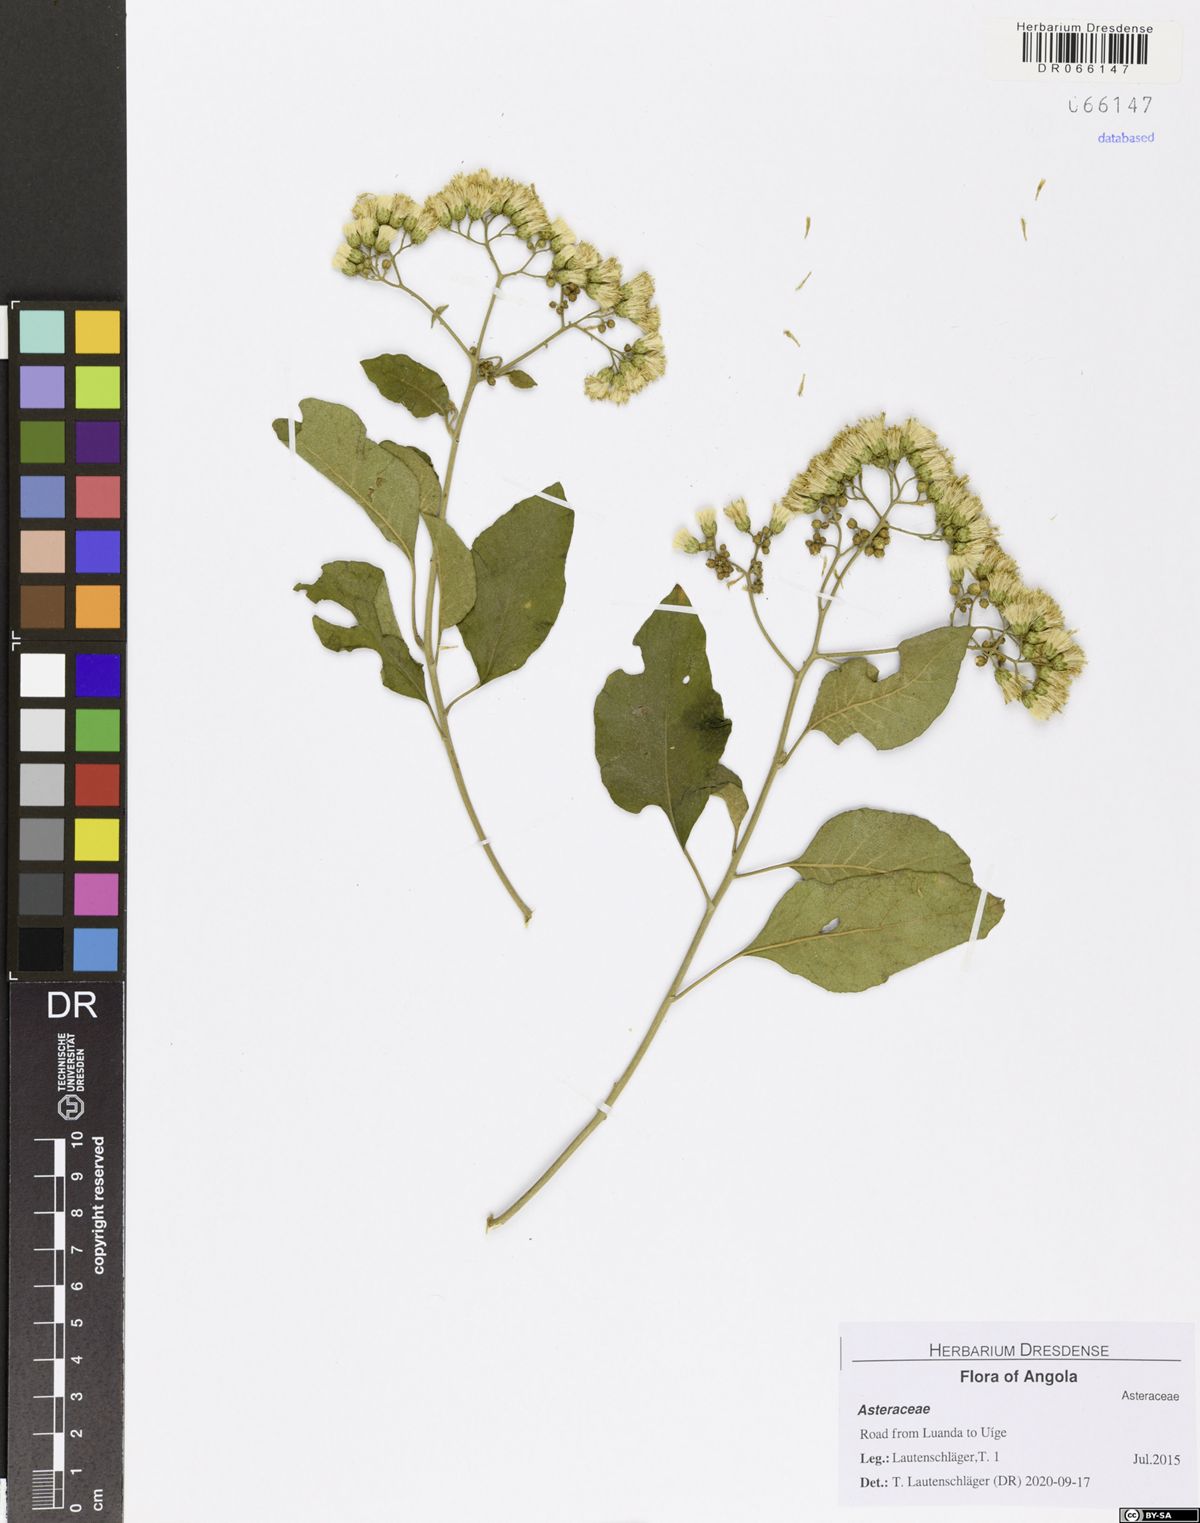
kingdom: Plantae
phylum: Tracheophyta
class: Magnoliopsida
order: Asterales
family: Asteraceae
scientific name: Asteraceae
